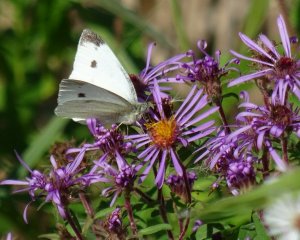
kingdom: Animalia
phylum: Arthropoda
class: Insecta
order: Lepidoptera
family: Pieridae
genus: Pieris
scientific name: Pieris rapae
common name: Cabbage White
